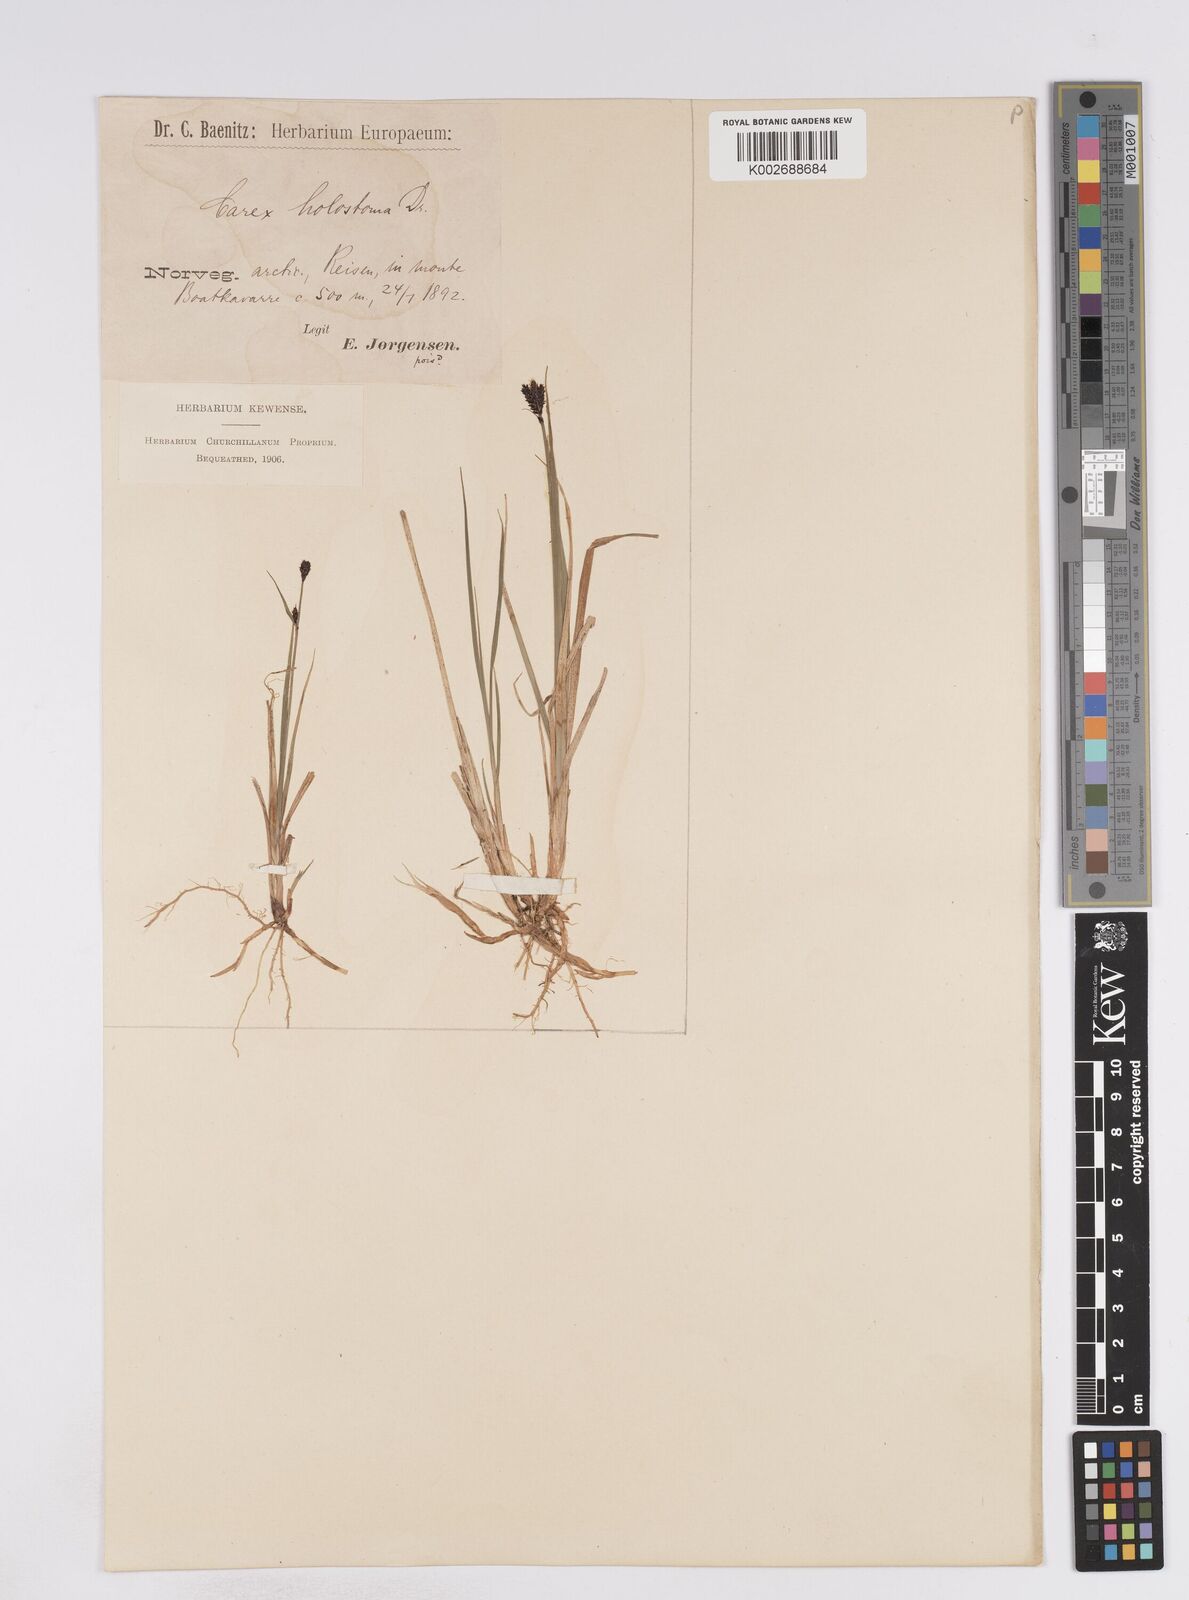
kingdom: Plantae
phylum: Tracheophyta
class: Liliopsida
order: Poales
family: Cyperaceae
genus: Carex
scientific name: Carex holostoma
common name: Arctic marsh sedge
